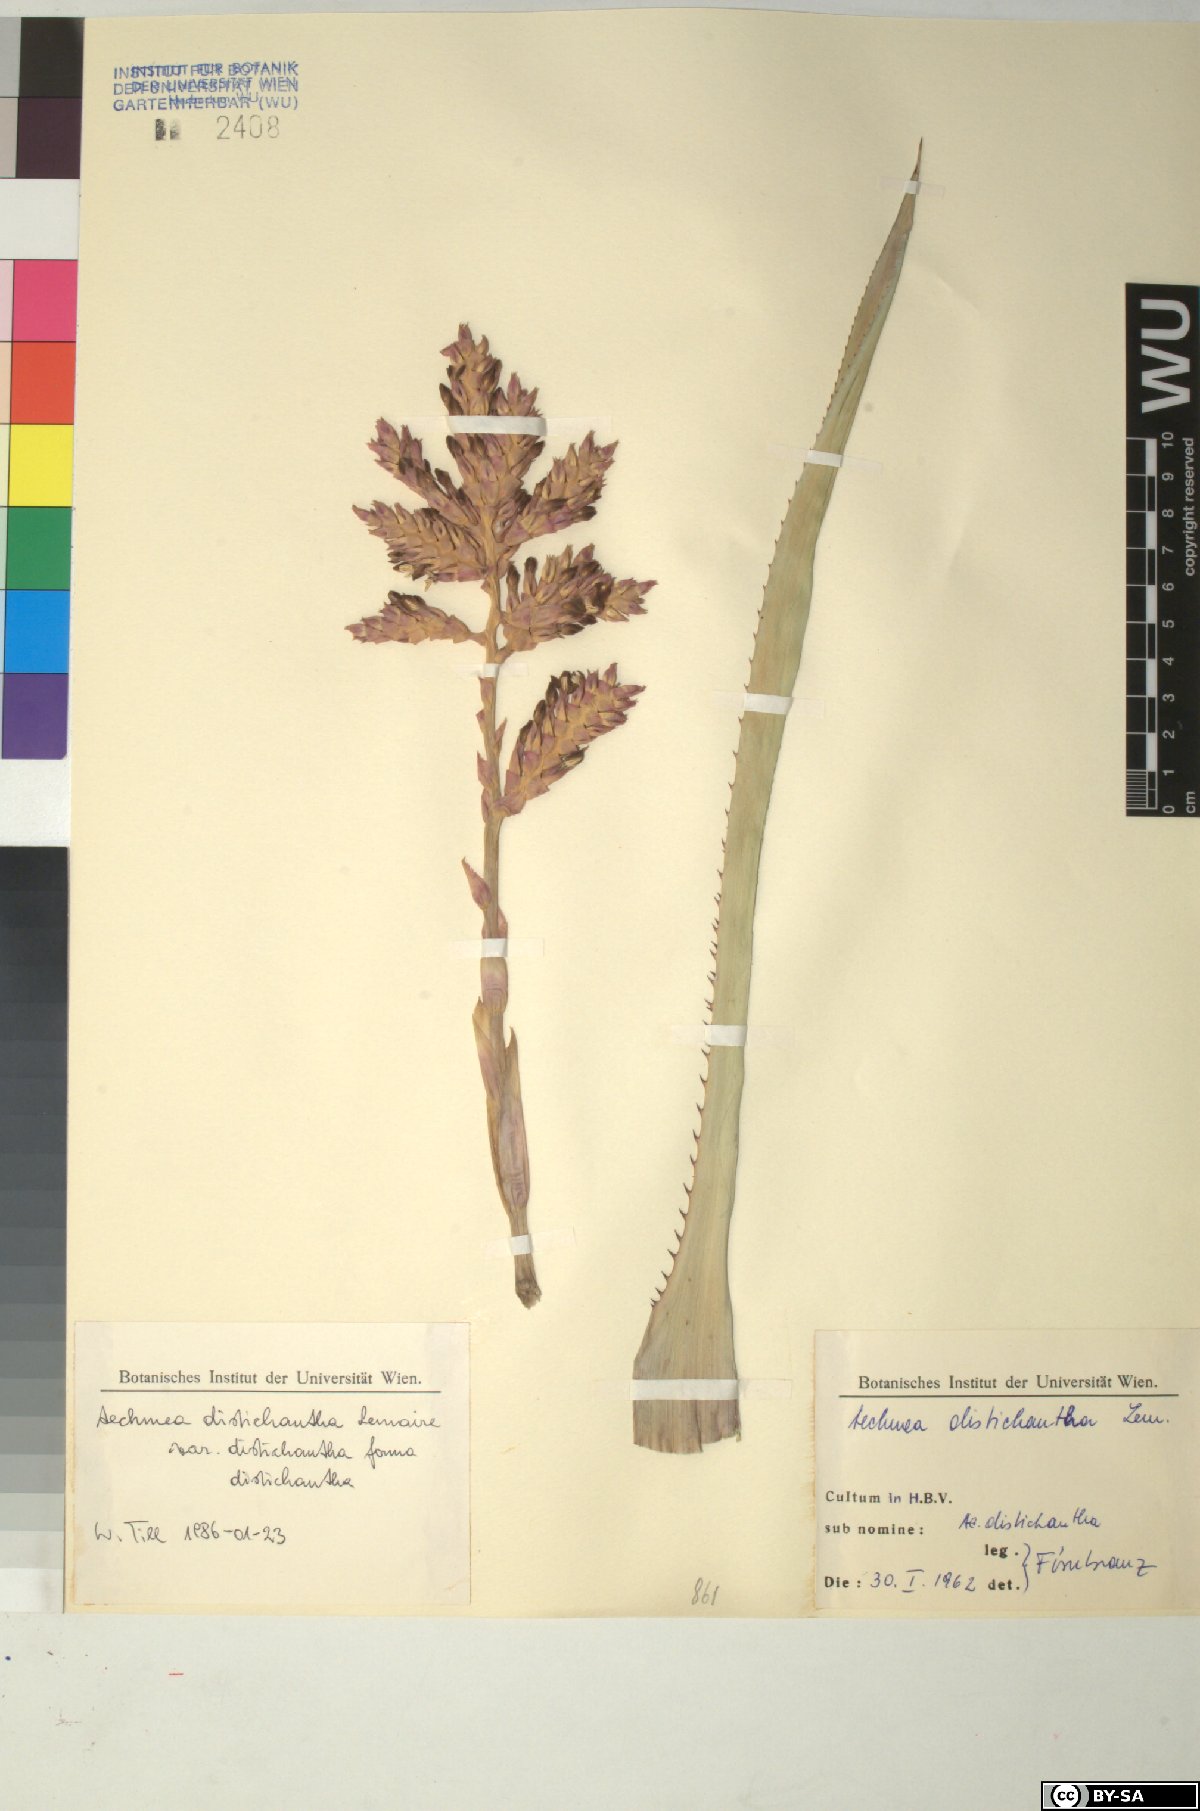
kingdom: Plantae
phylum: Tracheophyta
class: Liliopsida
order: Poales
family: Bromeliaceae
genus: Aechmea
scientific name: Aechmea penduliflora
